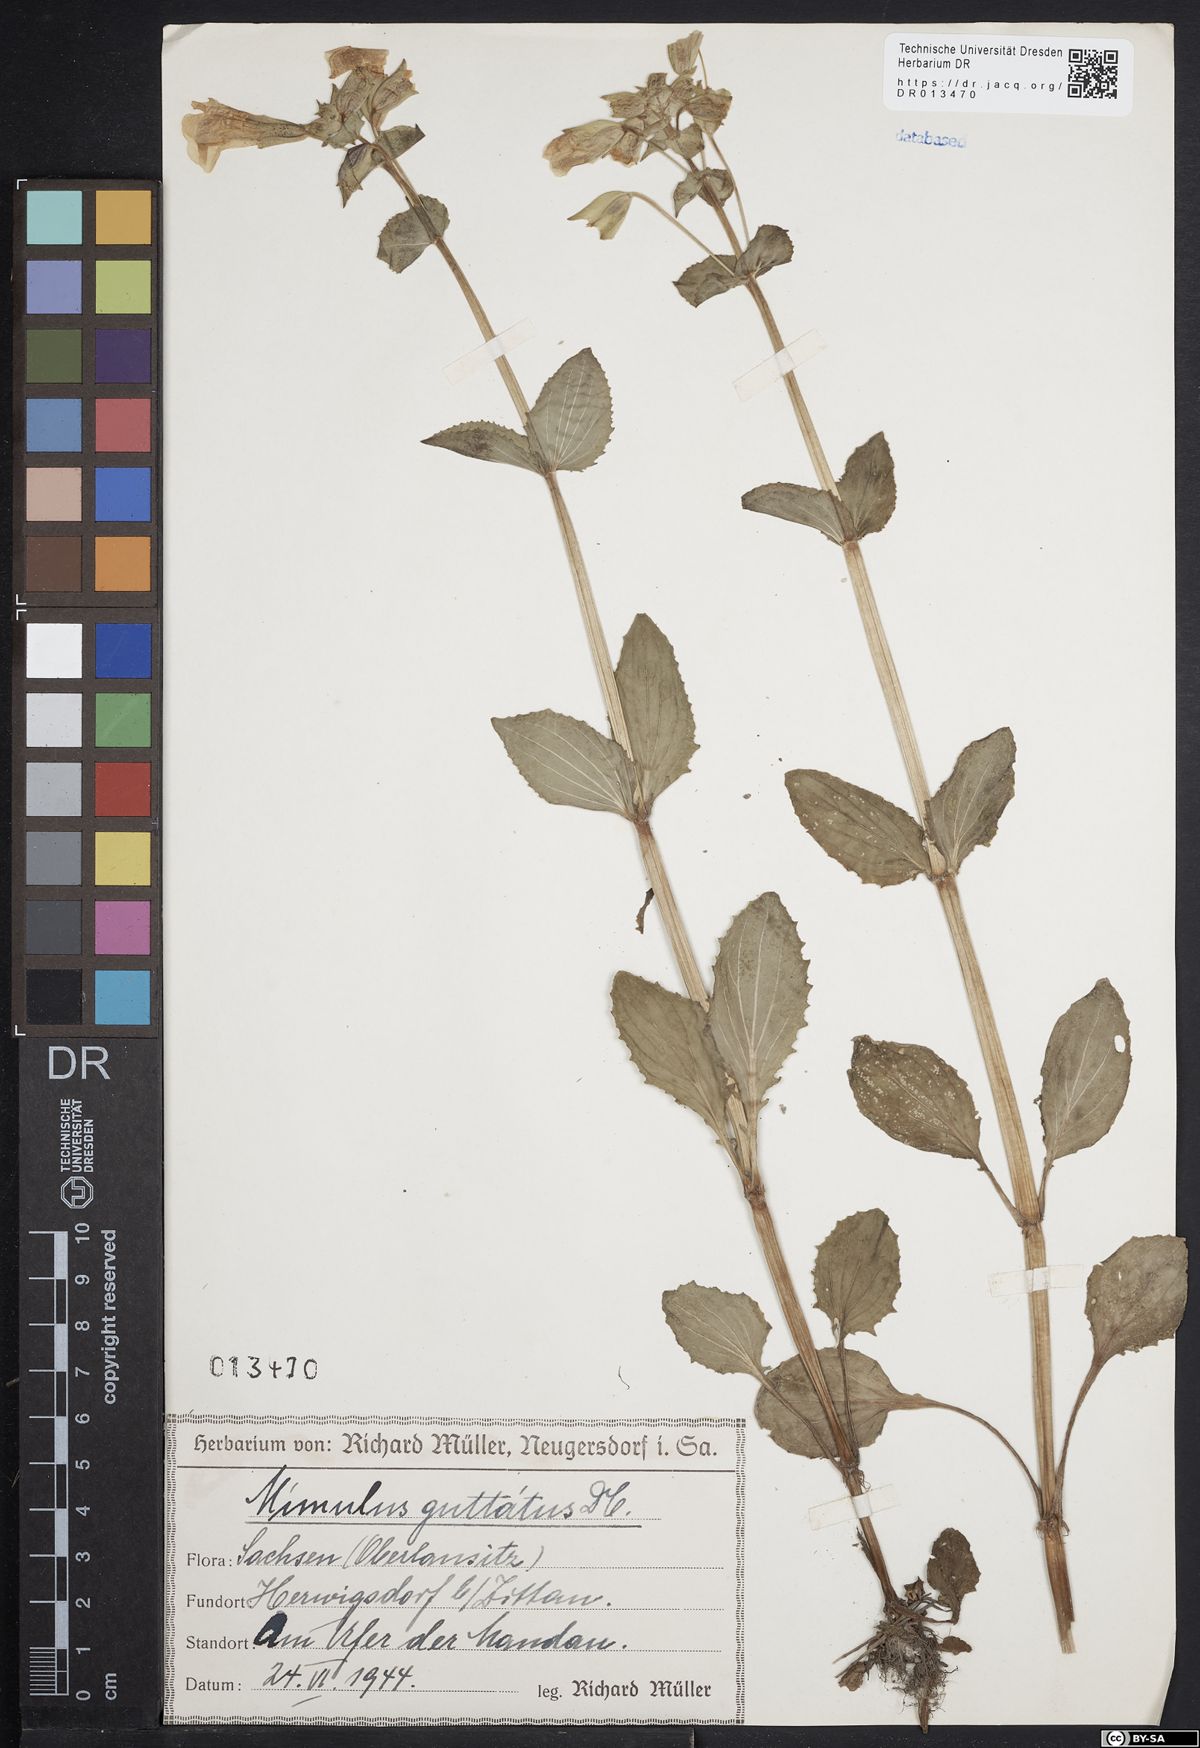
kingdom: Plantae
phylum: Tracheophyta
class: Magnoliopsida
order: Lamiales
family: Phrymaceae
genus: Erythranthe
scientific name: Erythranthe guttata
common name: Monkeyflower
